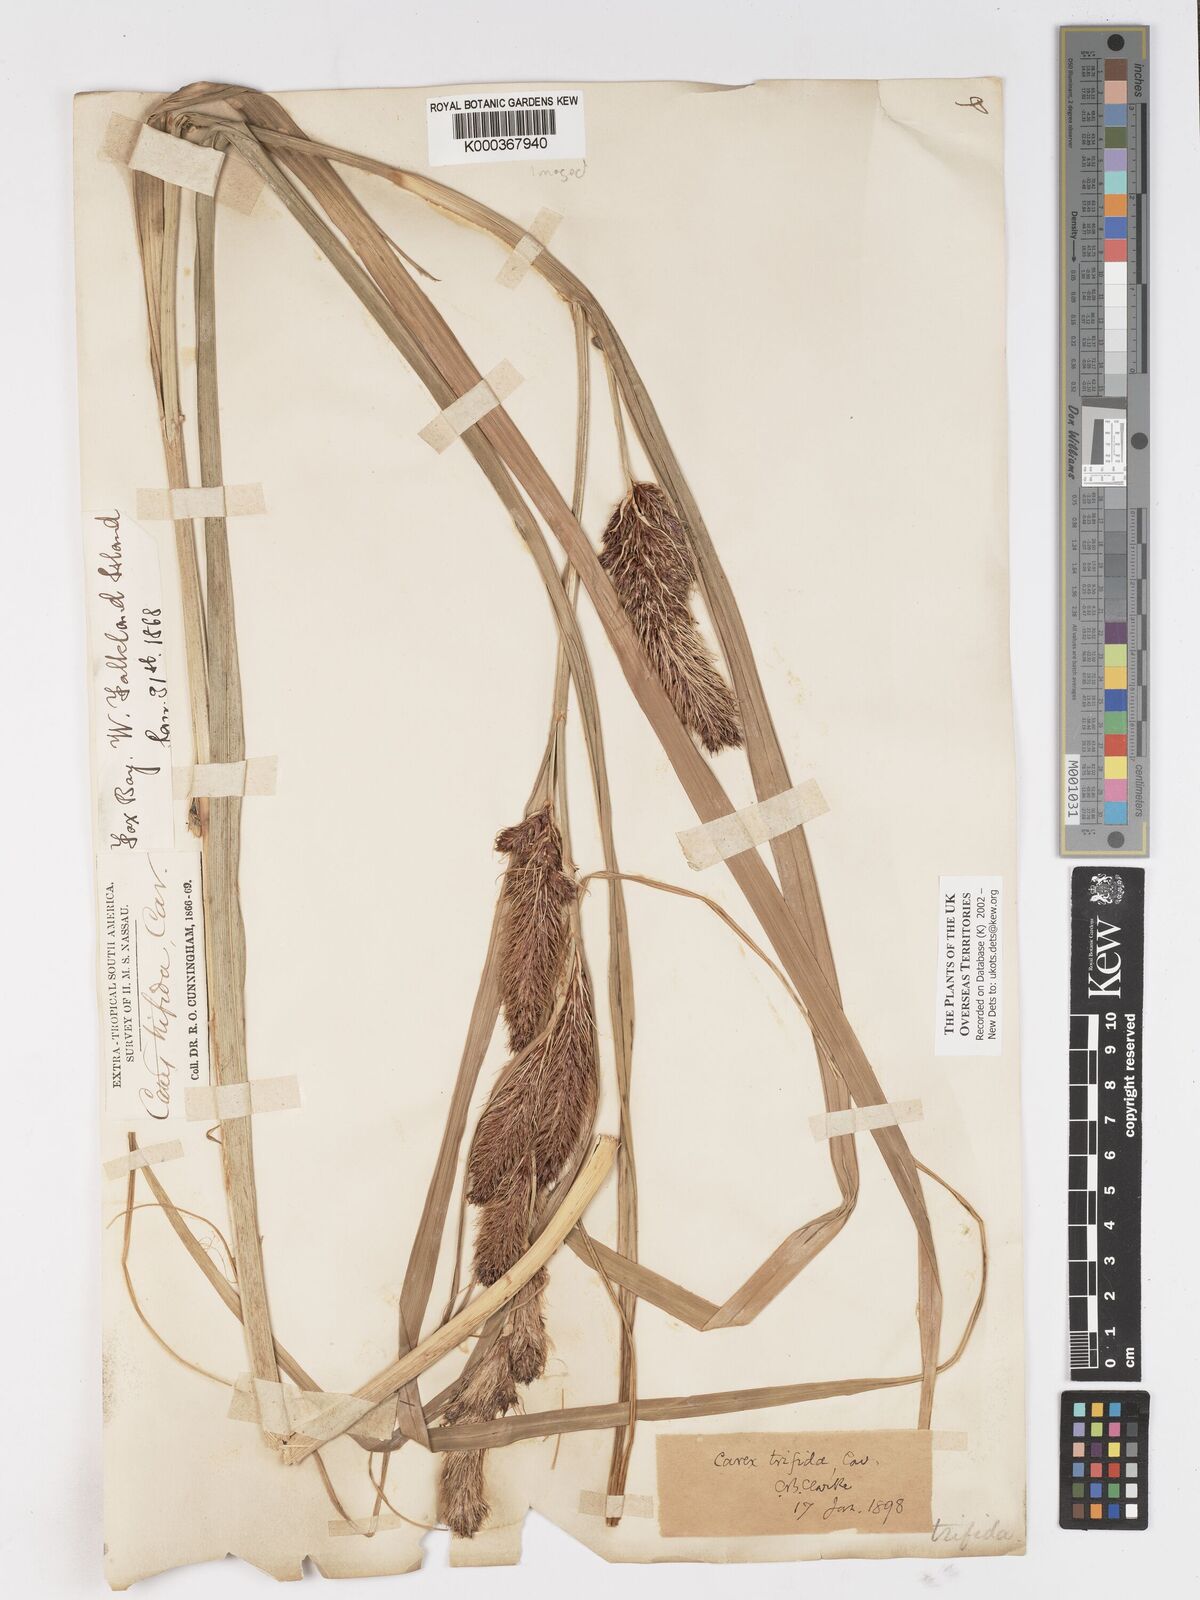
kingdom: Plantae
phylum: Tracheophyta
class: Liliopsida
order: Poales
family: Cyperaceae
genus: Carex
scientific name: Carex trifida
